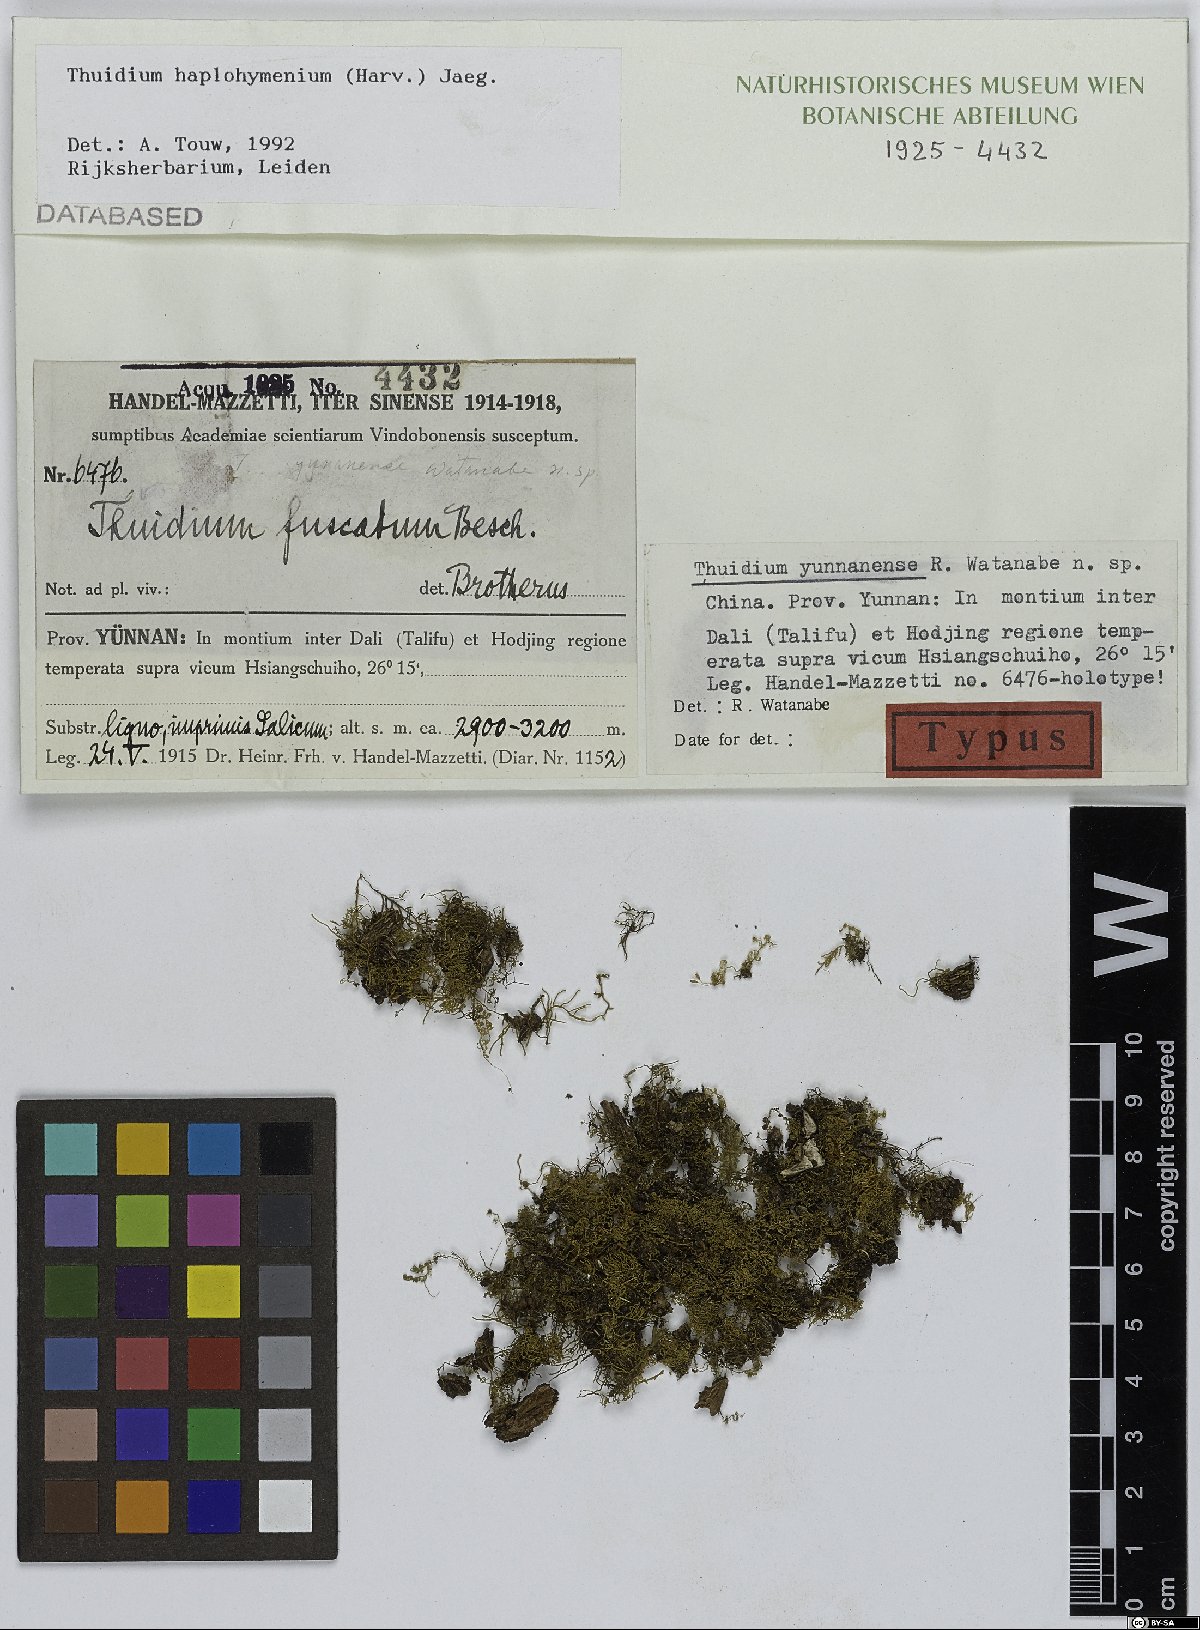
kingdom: Plantae
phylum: Bryophyta
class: Bryopsida
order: Hypnales
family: Thuidiaceae
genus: Thuidium
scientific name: Thuidium
